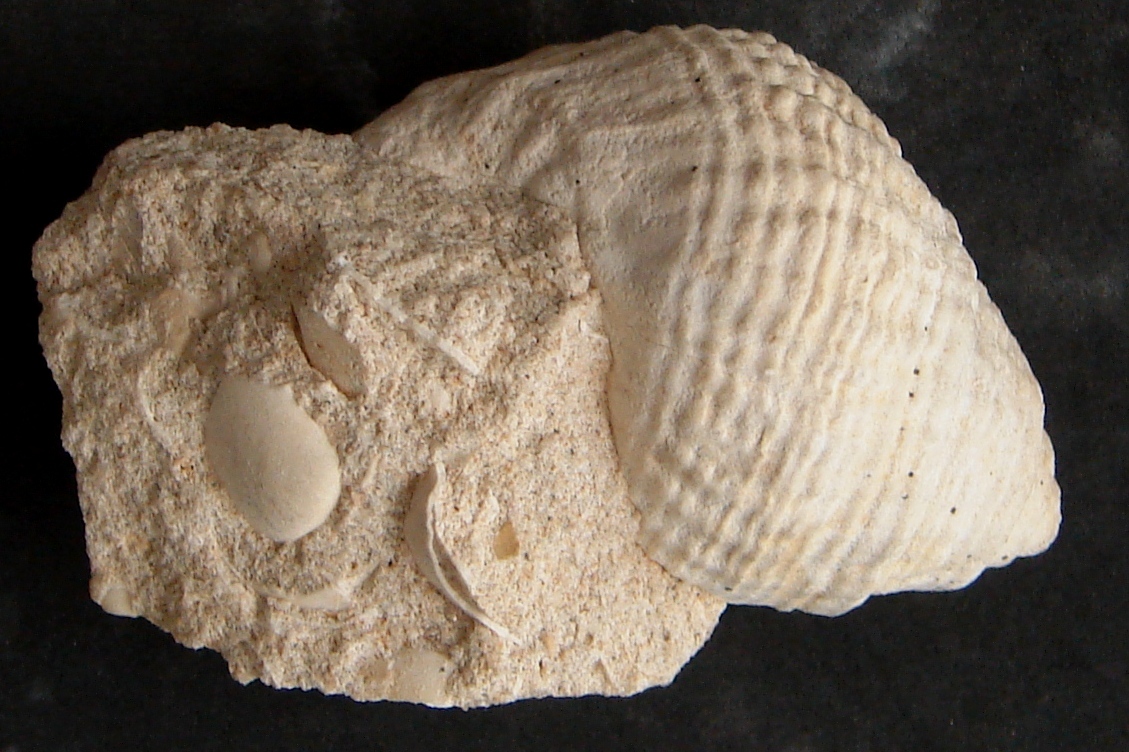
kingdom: Animalia
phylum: Mollusca
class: Gastropoda
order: Neogastropoda
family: Purpurinidae
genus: Microschiza
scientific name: Microschiza
